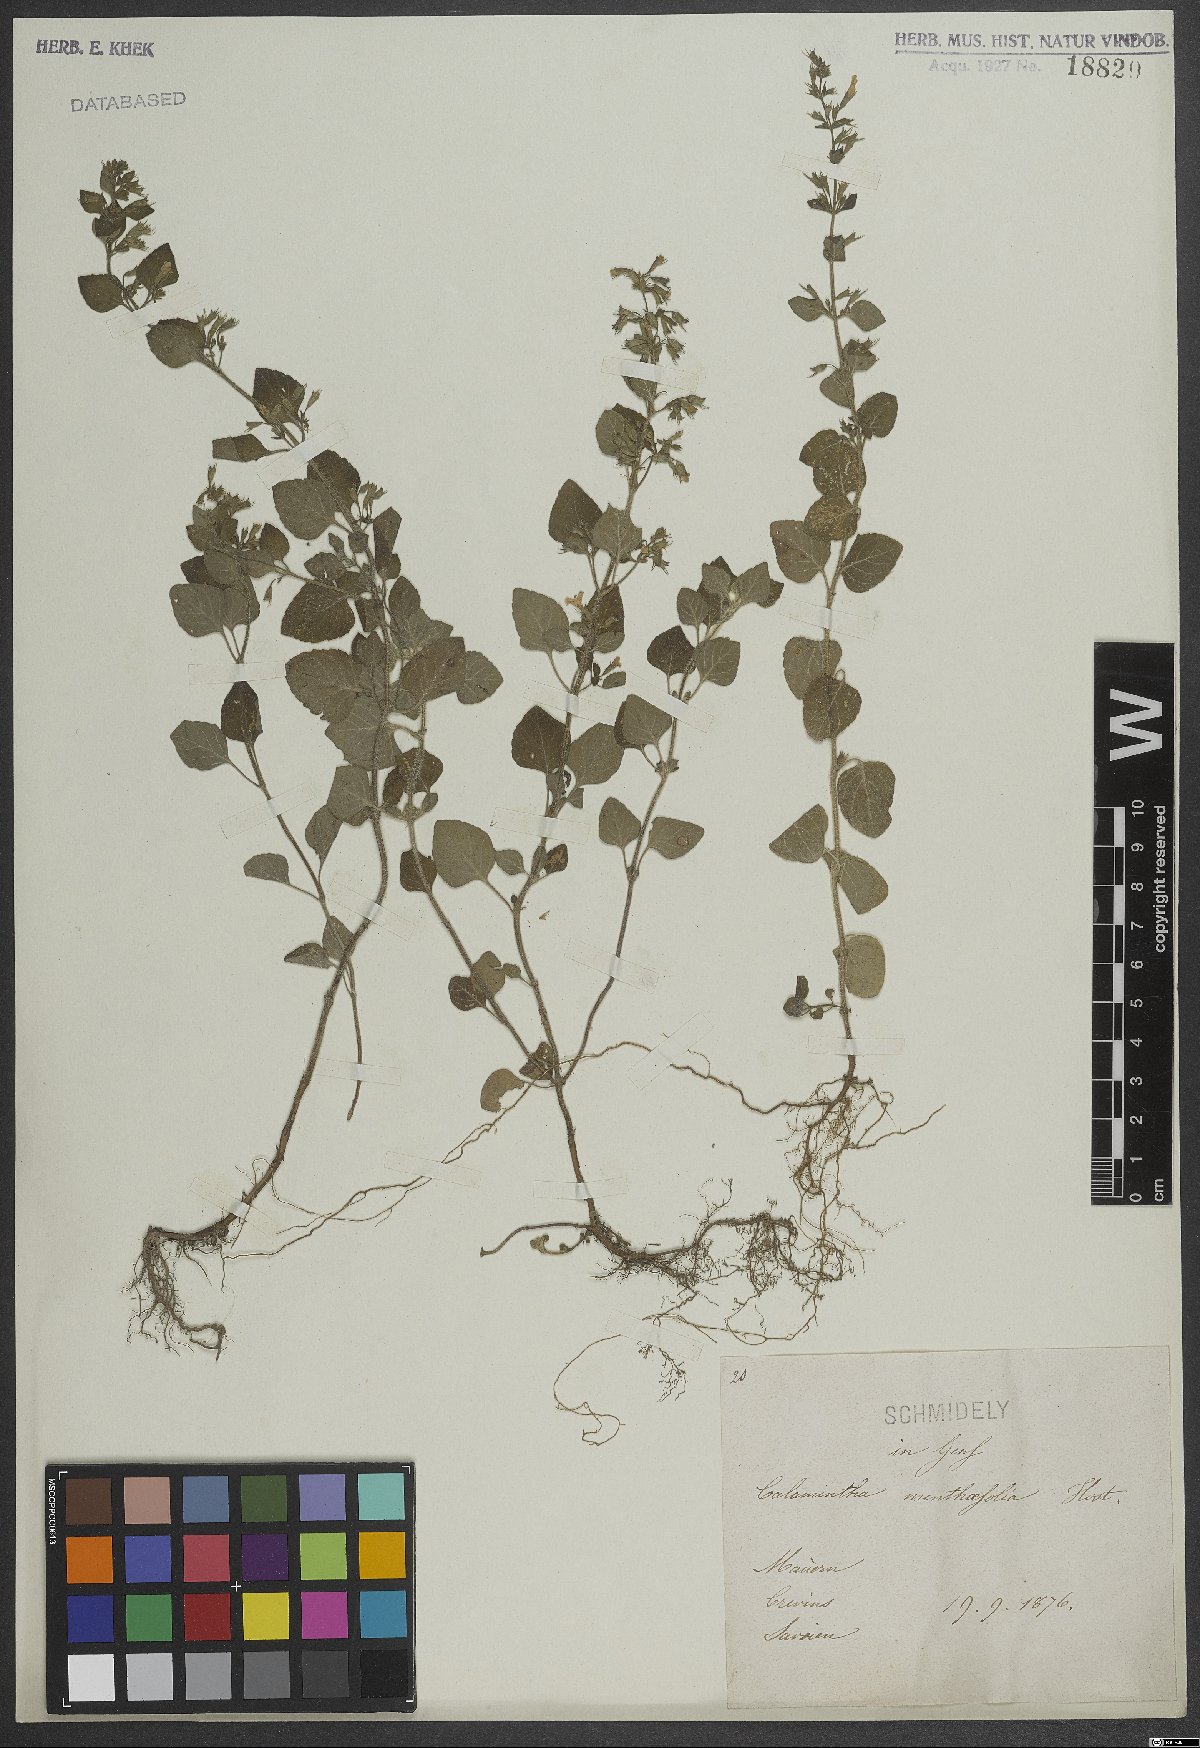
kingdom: Plantae
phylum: Tracheophyta
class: Magnoliopsida
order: Lamiales
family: Lamiaceae
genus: Calamintha
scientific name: Calamintha
